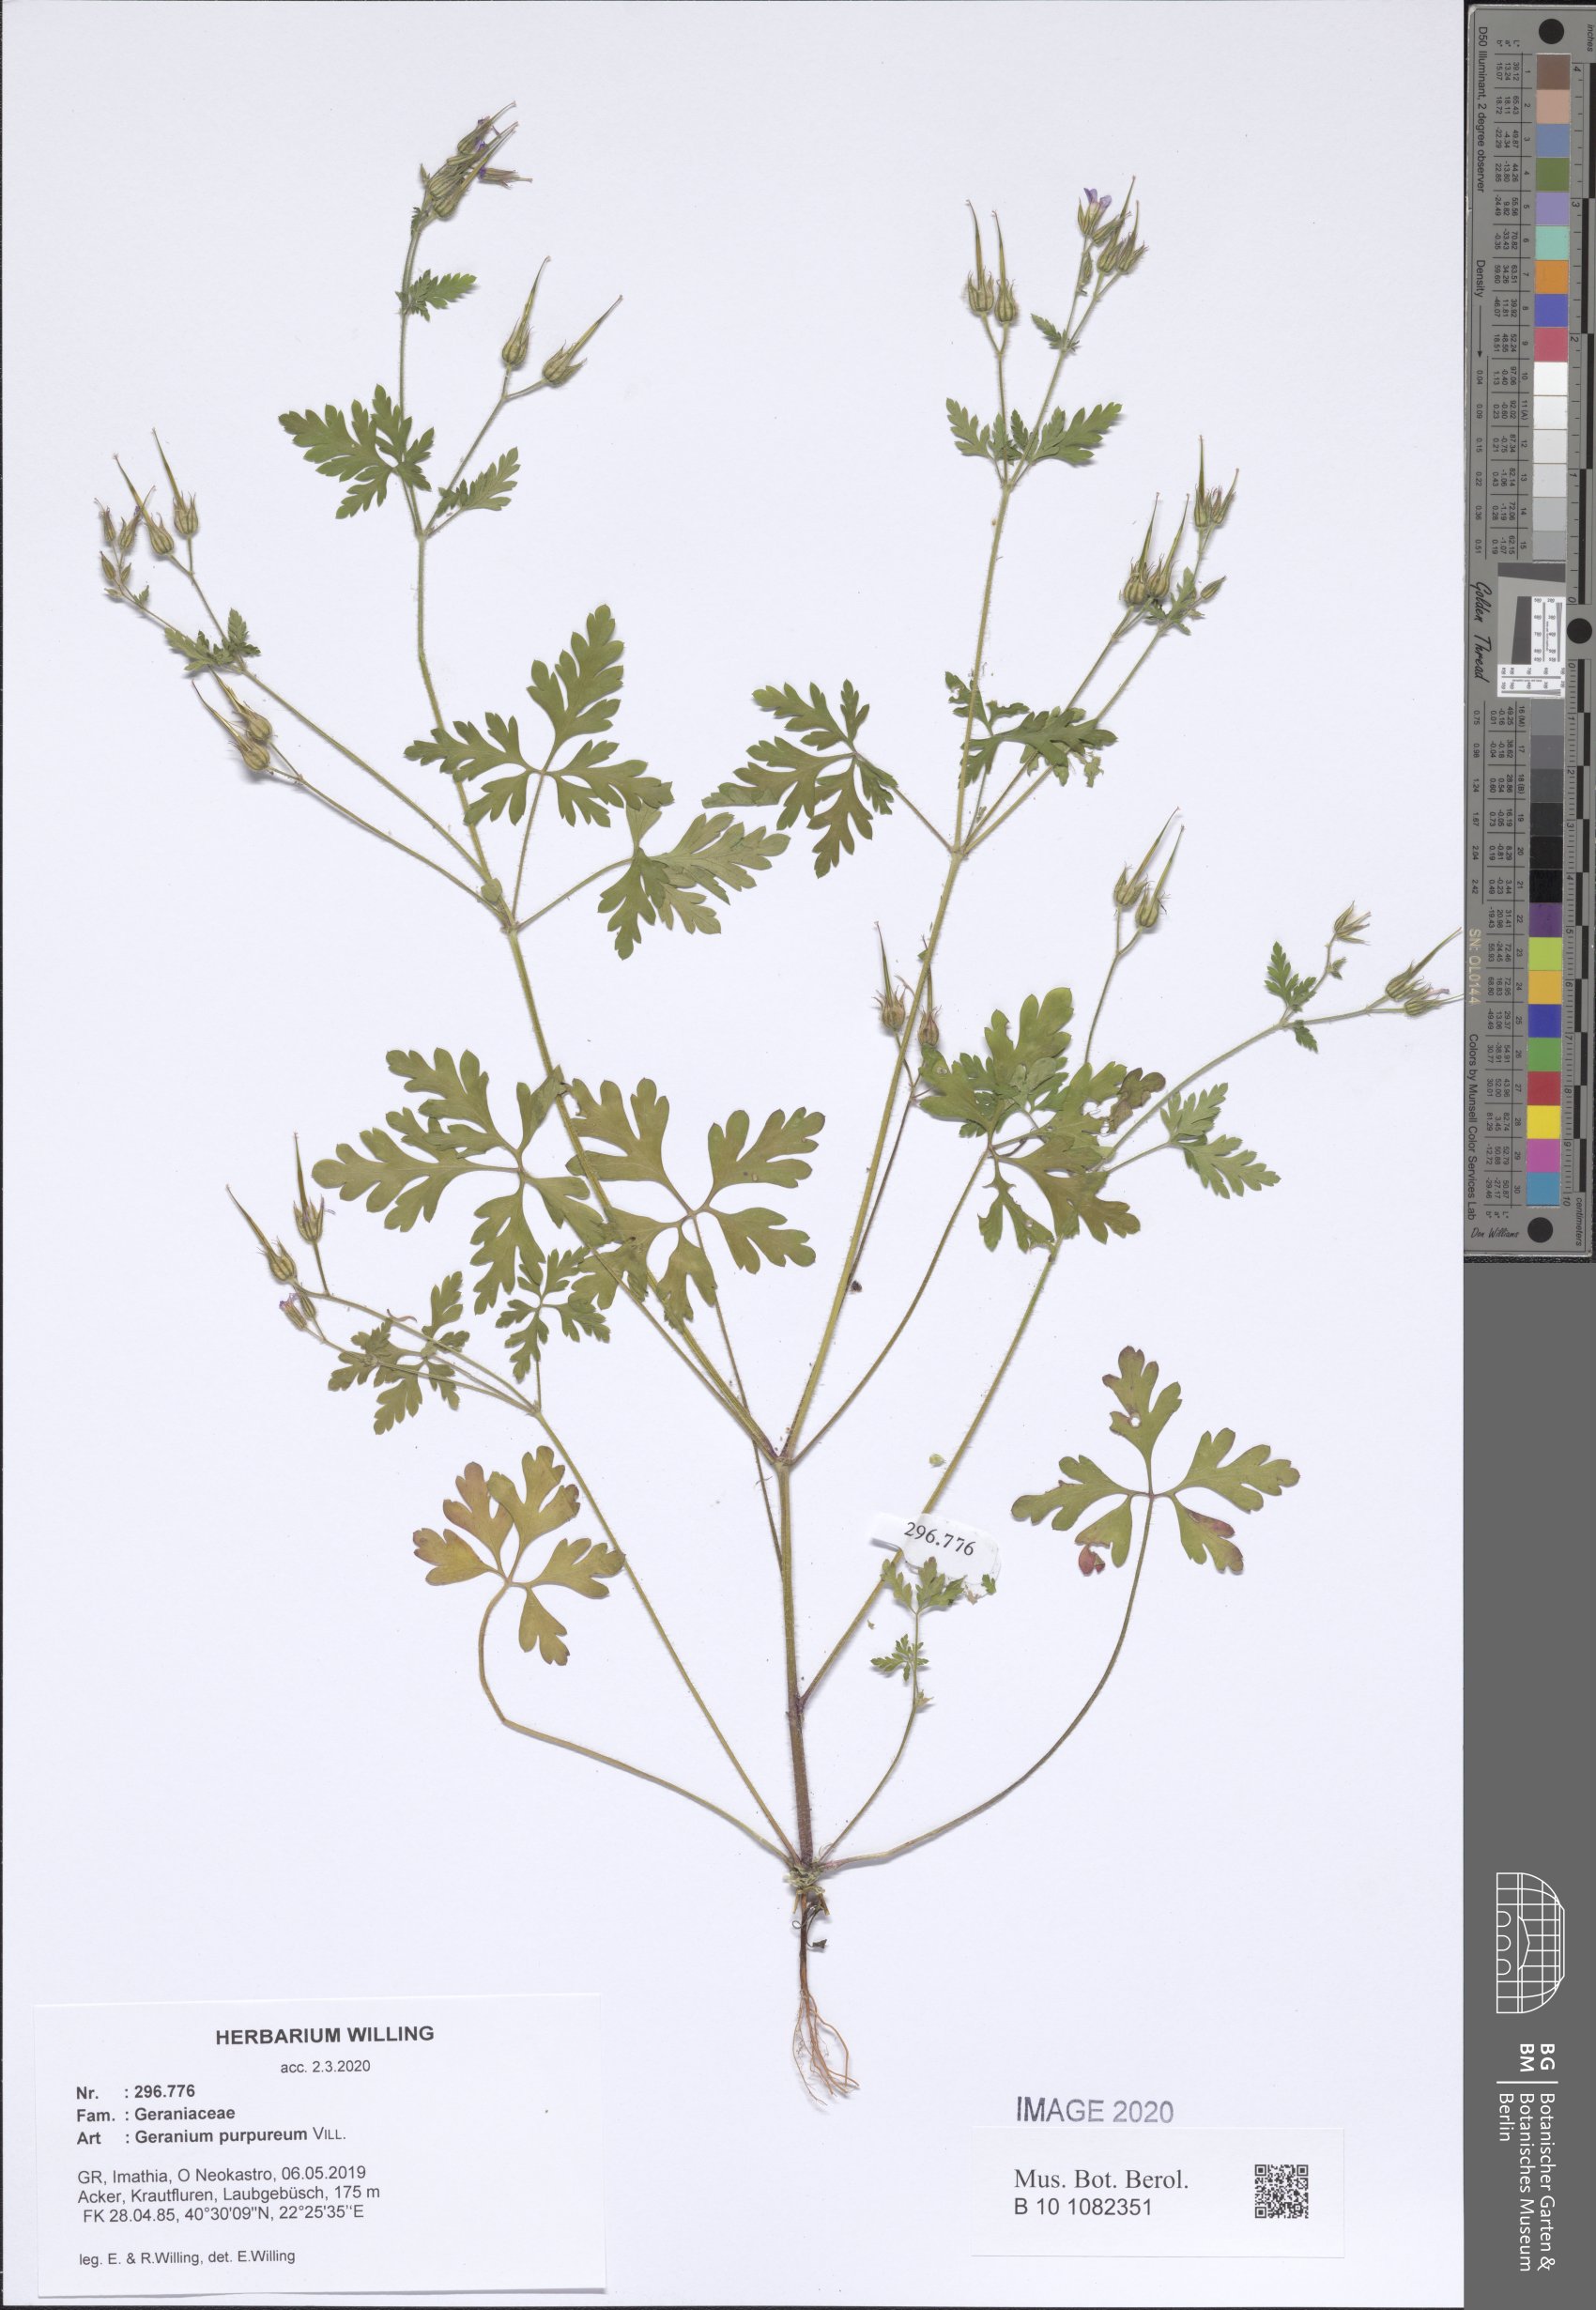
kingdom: Plantae
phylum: Tracheophyta
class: Magnoliopsida
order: Geraniales
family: Geraniaceae
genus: Geranium
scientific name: Geranium purpureum
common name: Little-robin
